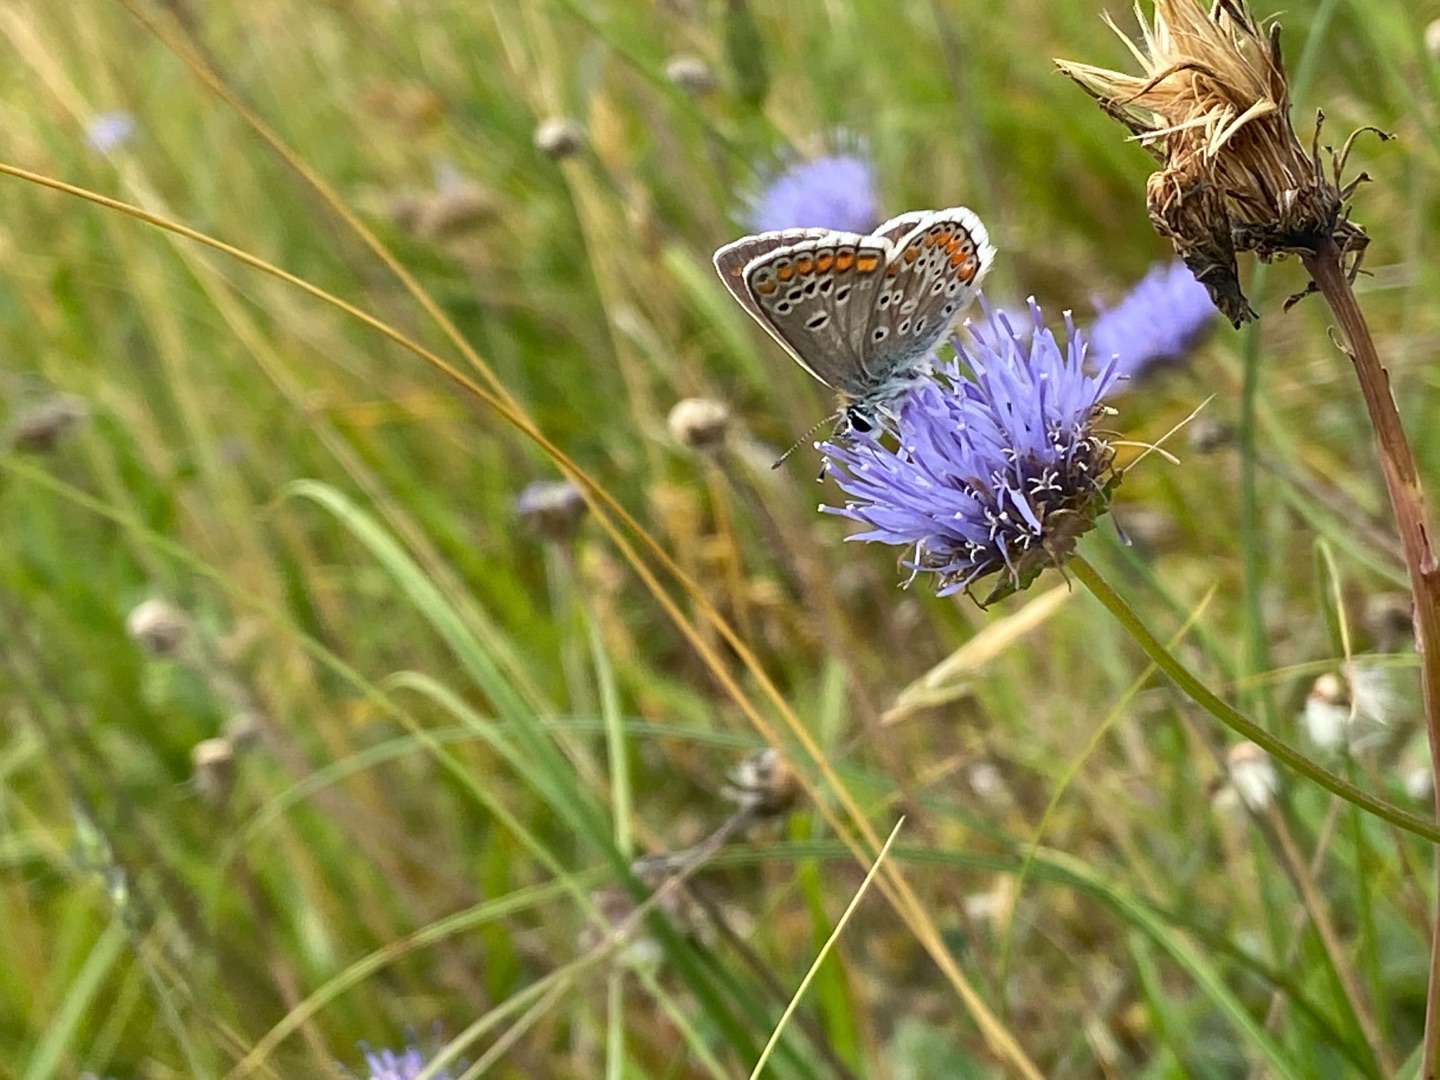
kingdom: Animalia
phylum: Arthropoda
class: Insecta
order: Lepidoptera
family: Lycaenidae
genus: Aricia
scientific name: Aricia agestis
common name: Rødplettet blåfugl
